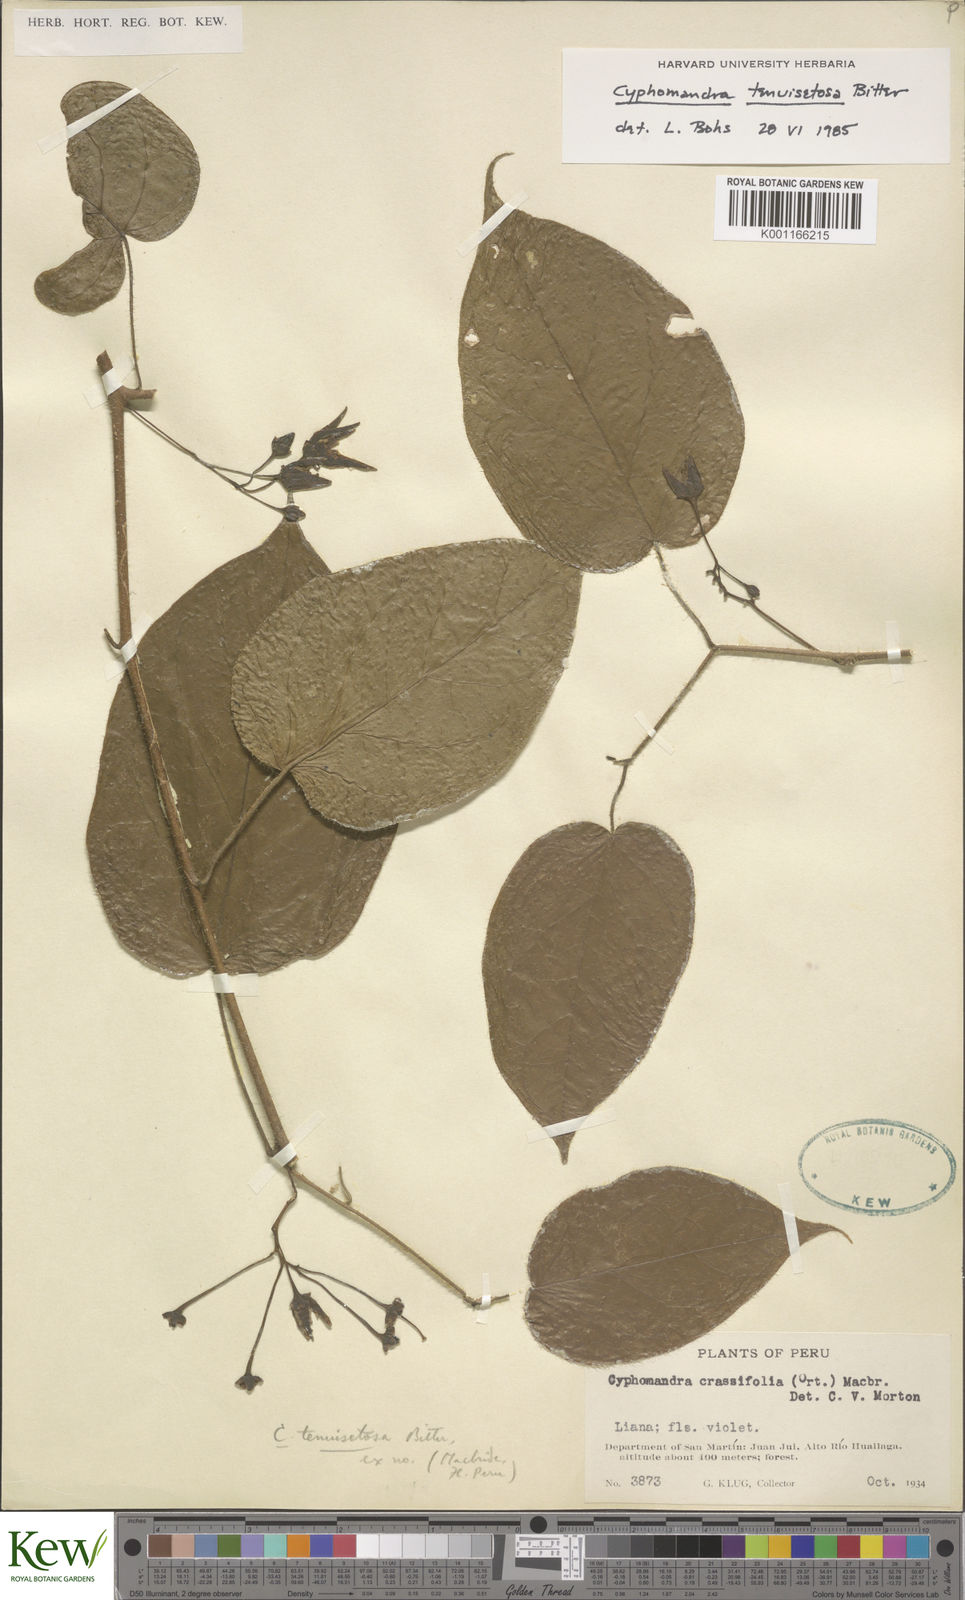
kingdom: Plantae
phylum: Tracheophyta
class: Magnoliopsida
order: Solanales
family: Solanaceae
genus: Solanum
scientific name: Solanum tenuisetosum
